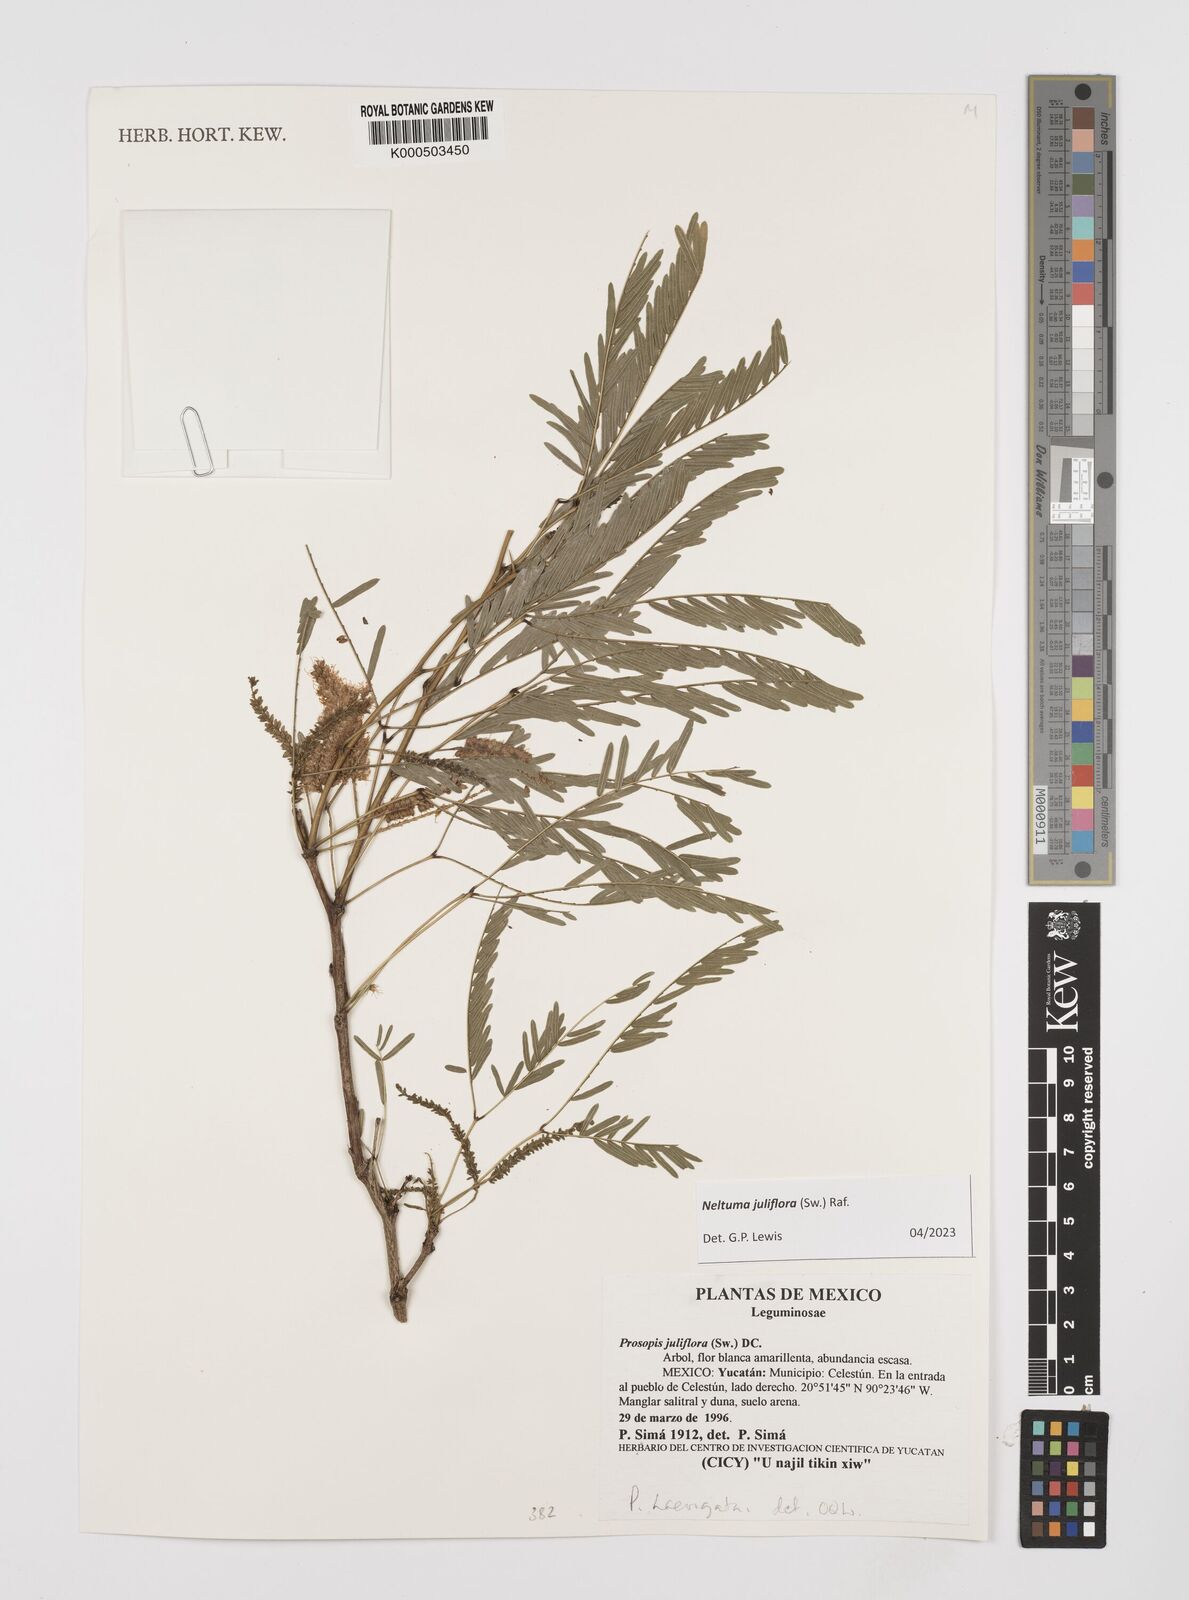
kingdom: Plantae
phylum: Tracheophyta
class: Magnoliopsida
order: Fabales
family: Fabaceae
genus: Prosopis
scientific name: Prosopis juliflora
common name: Mesquite
